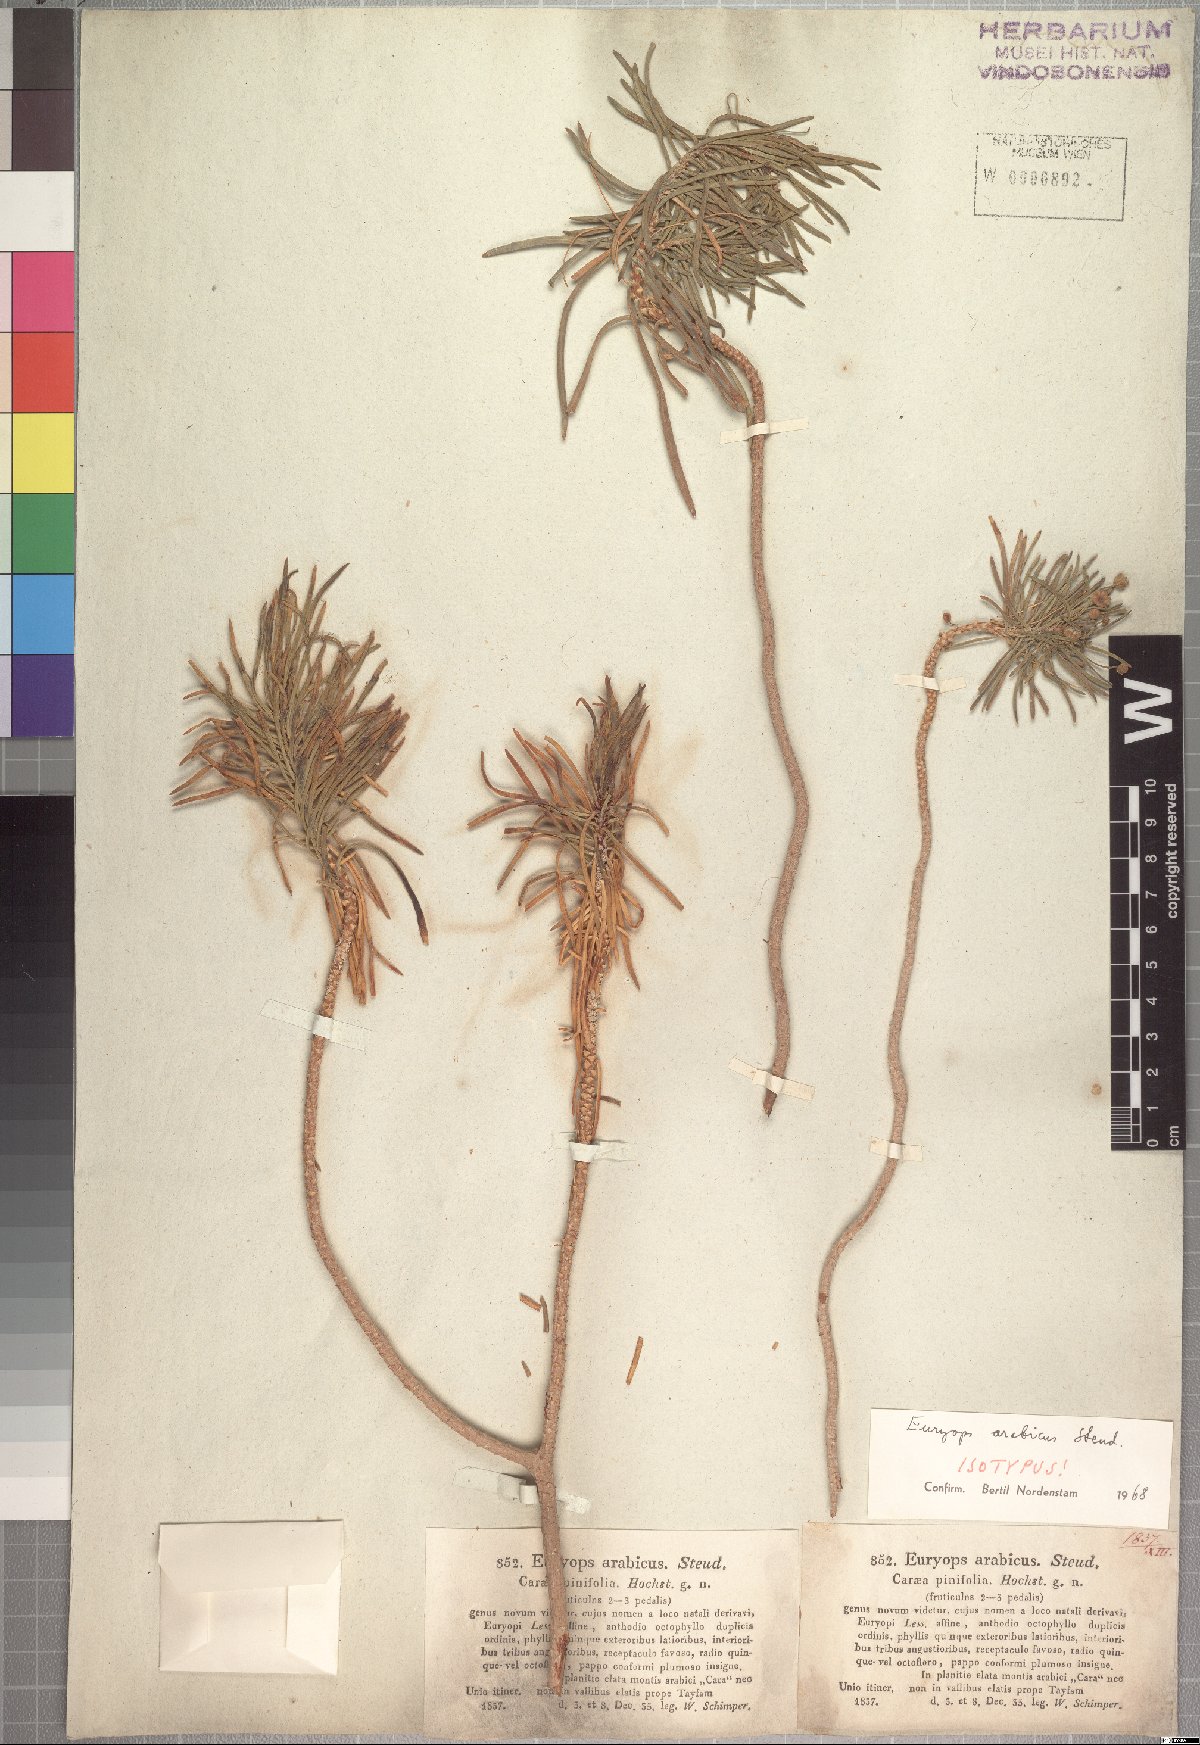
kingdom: Plantae
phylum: Tracheophyta
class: Magnoliopsida
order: Asterales
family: Asteraceae
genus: Euryops
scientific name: Euryops arabicus
